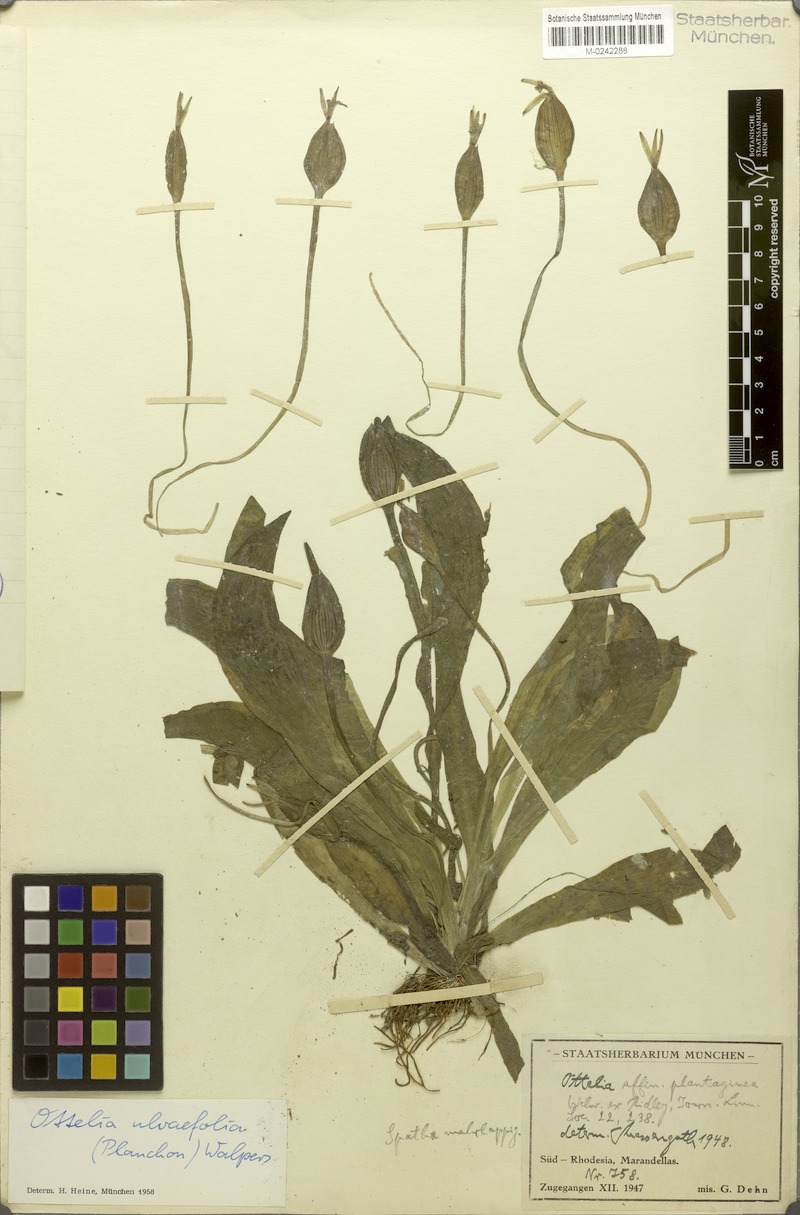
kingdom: Plantae
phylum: Tracheophyta
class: Liliopsida
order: Alismatales
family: Hydrocharitaceae
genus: Ottelia
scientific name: Ottelia ulvifolia
